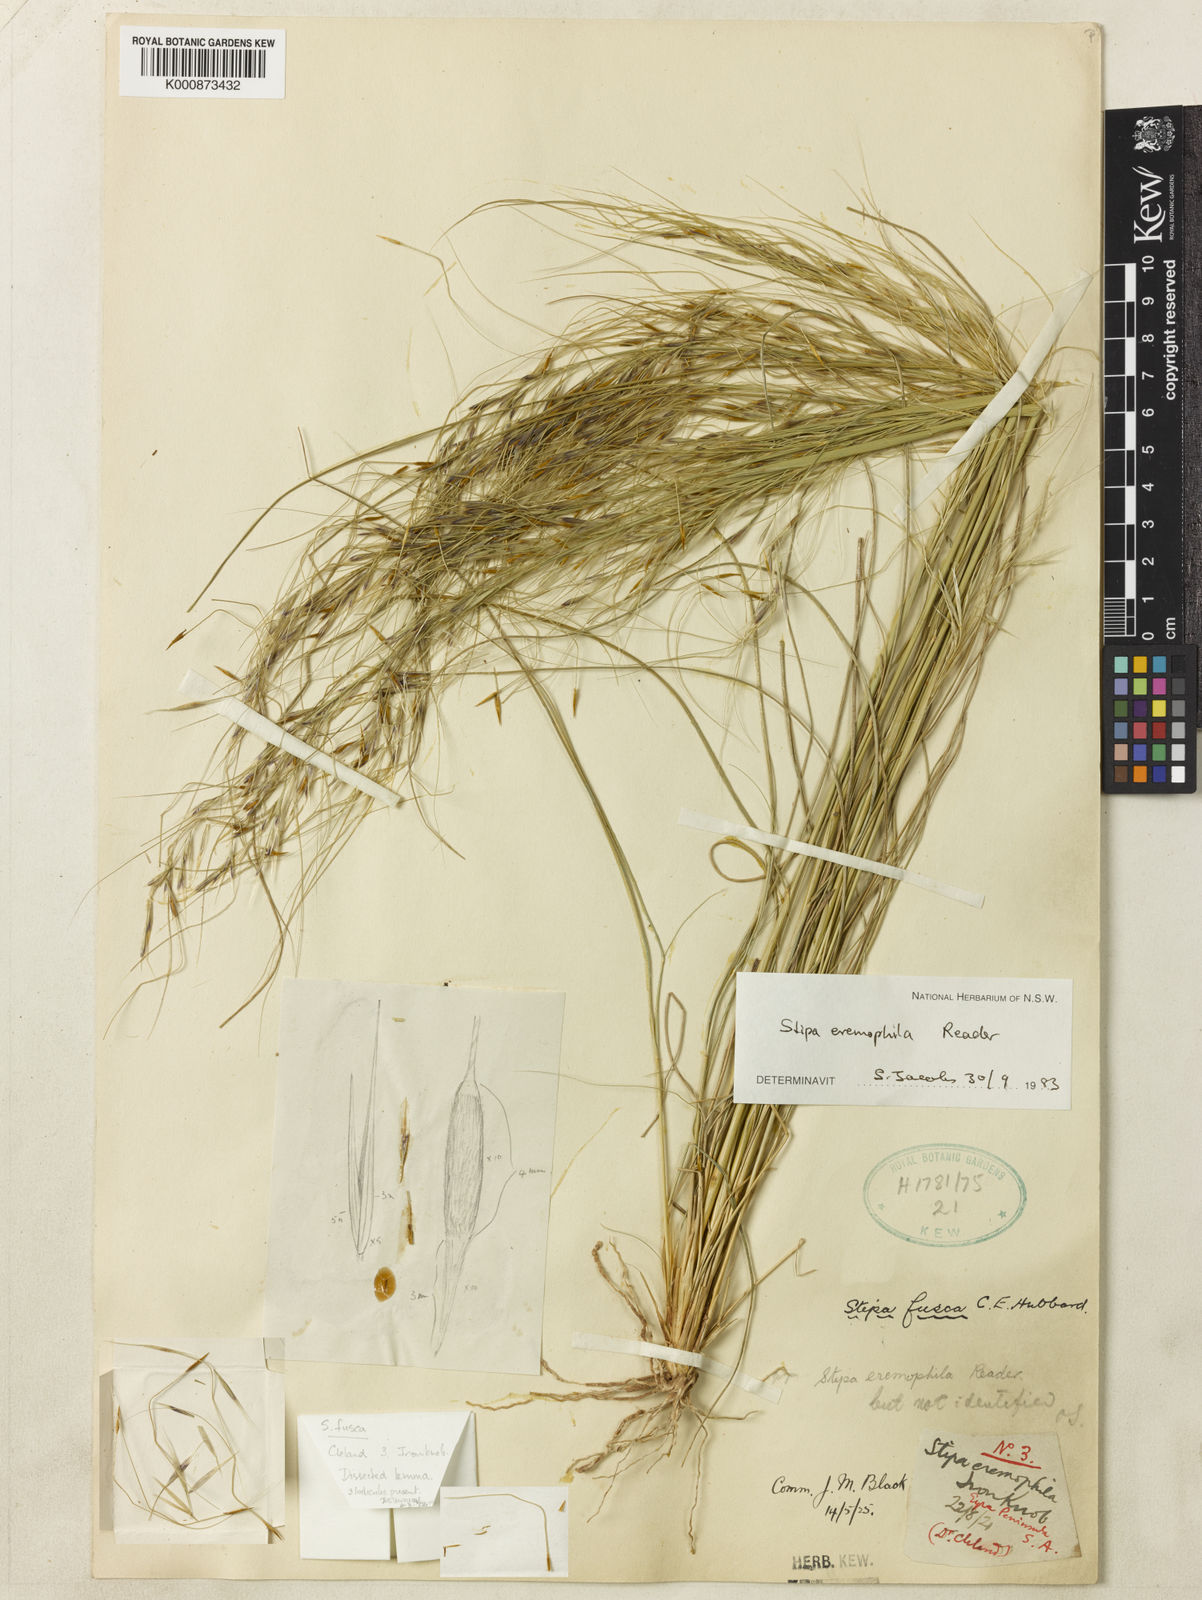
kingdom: Plantae
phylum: Tracheophyta
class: Liliopsida
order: Poales
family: Poaceae
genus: Austrostipa
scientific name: Austrostipa eremophila
